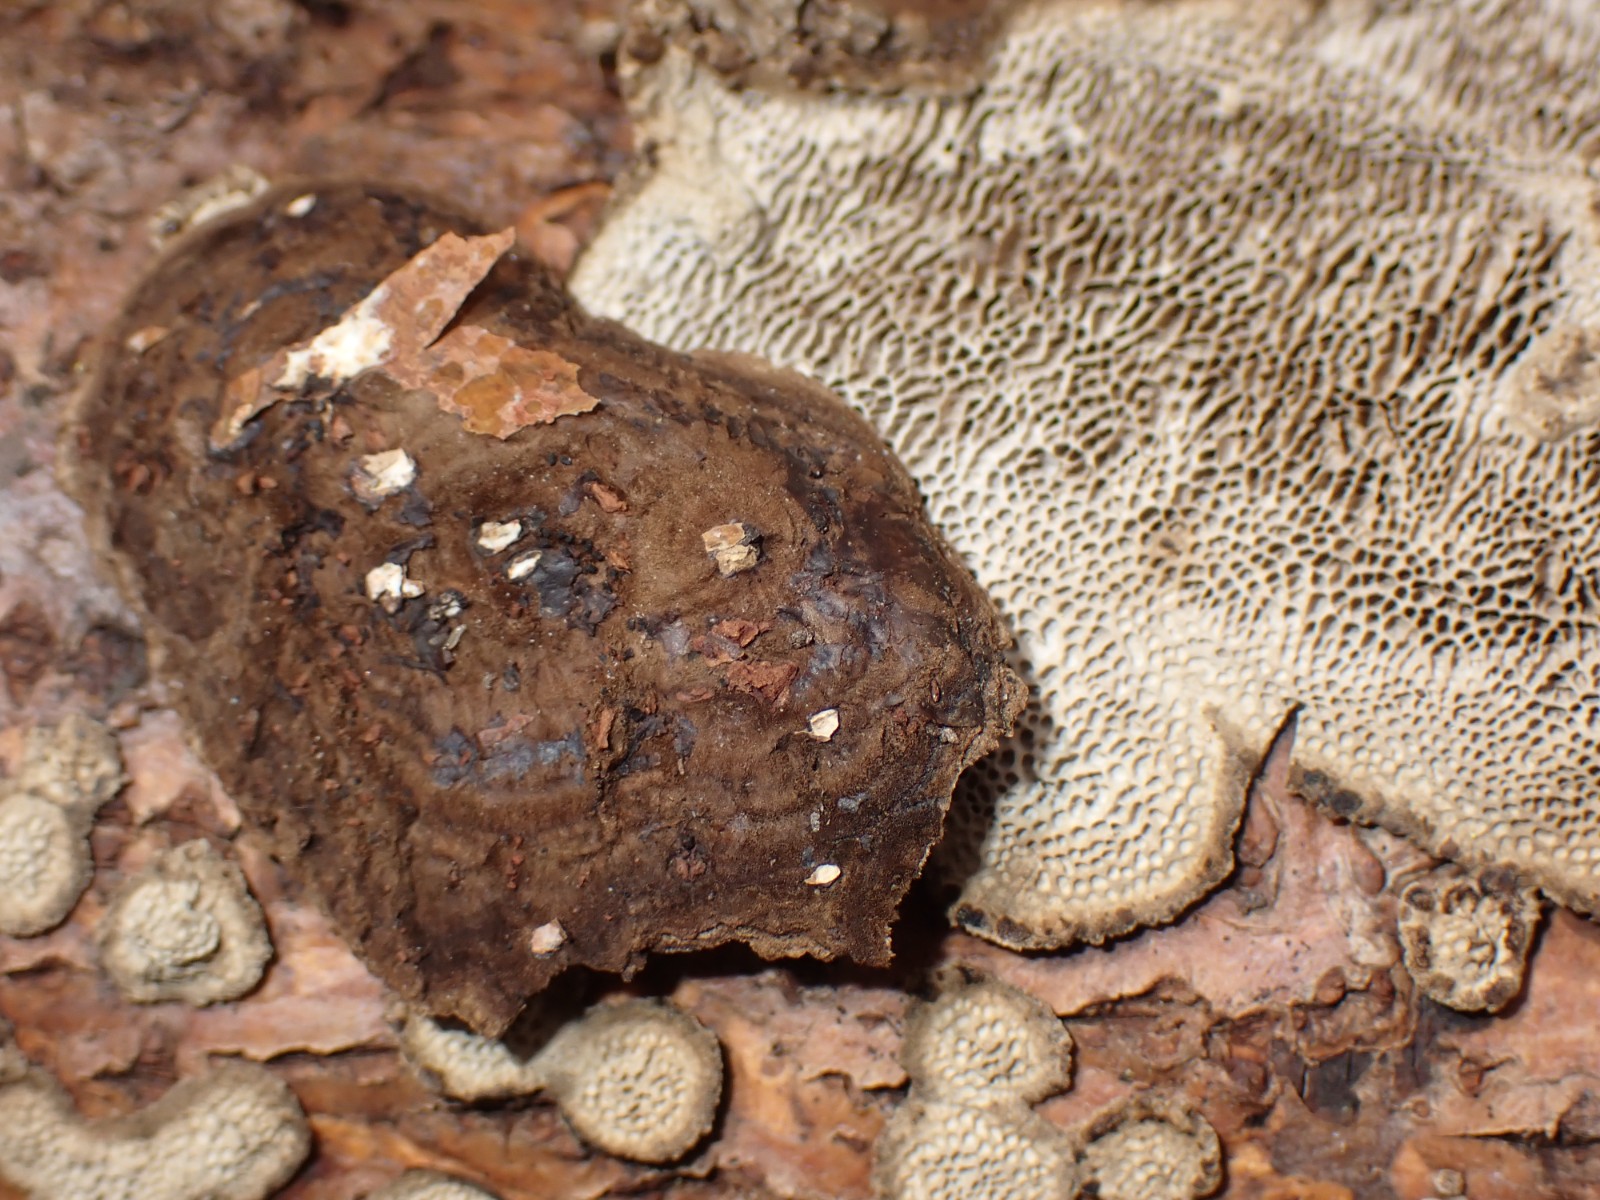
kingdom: Fungi
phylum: Basidiomycota
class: Agaricomycetes
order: Polyporales
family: Polyporaceae
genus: Podofomes
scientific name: Podofomes mollis
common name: blød begporesvamp
